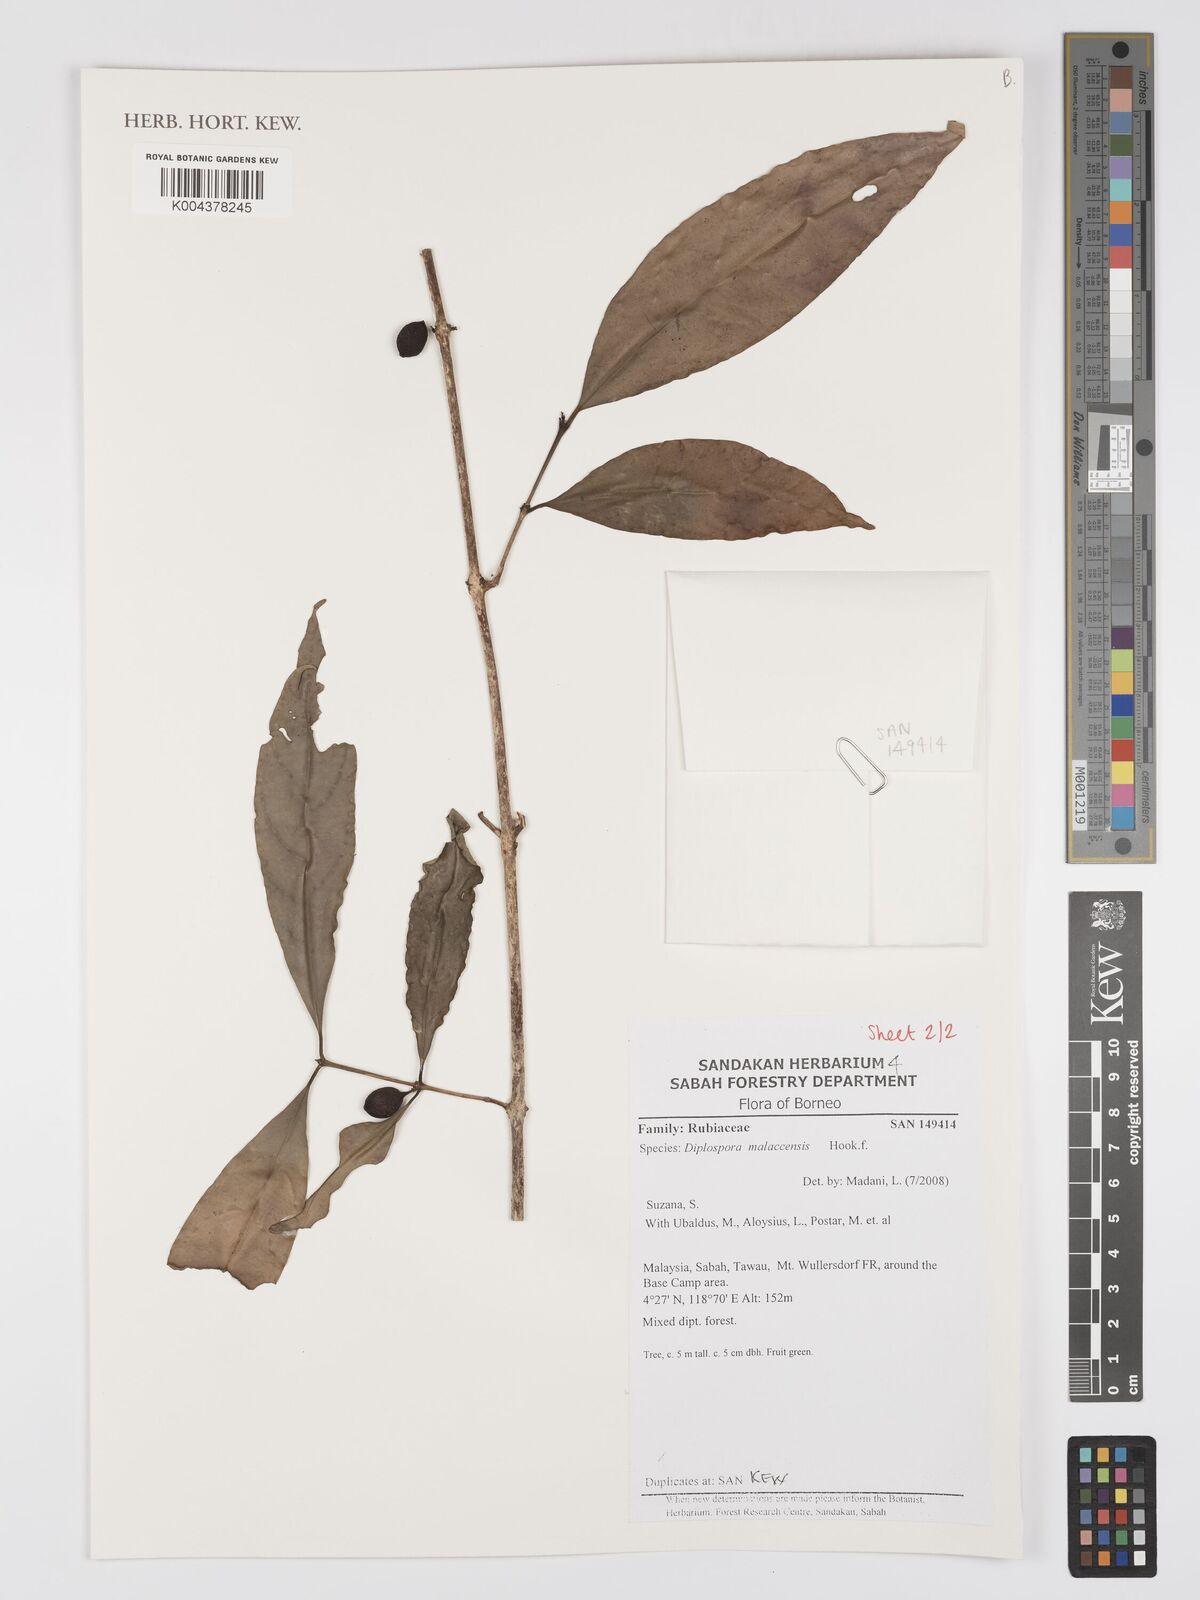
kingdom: Plantae
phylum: Tracheophyta
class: Magnoliopsida
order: Gentianales
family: Rubiaceae
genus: Discospermum
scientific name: Discospermum malaccense
